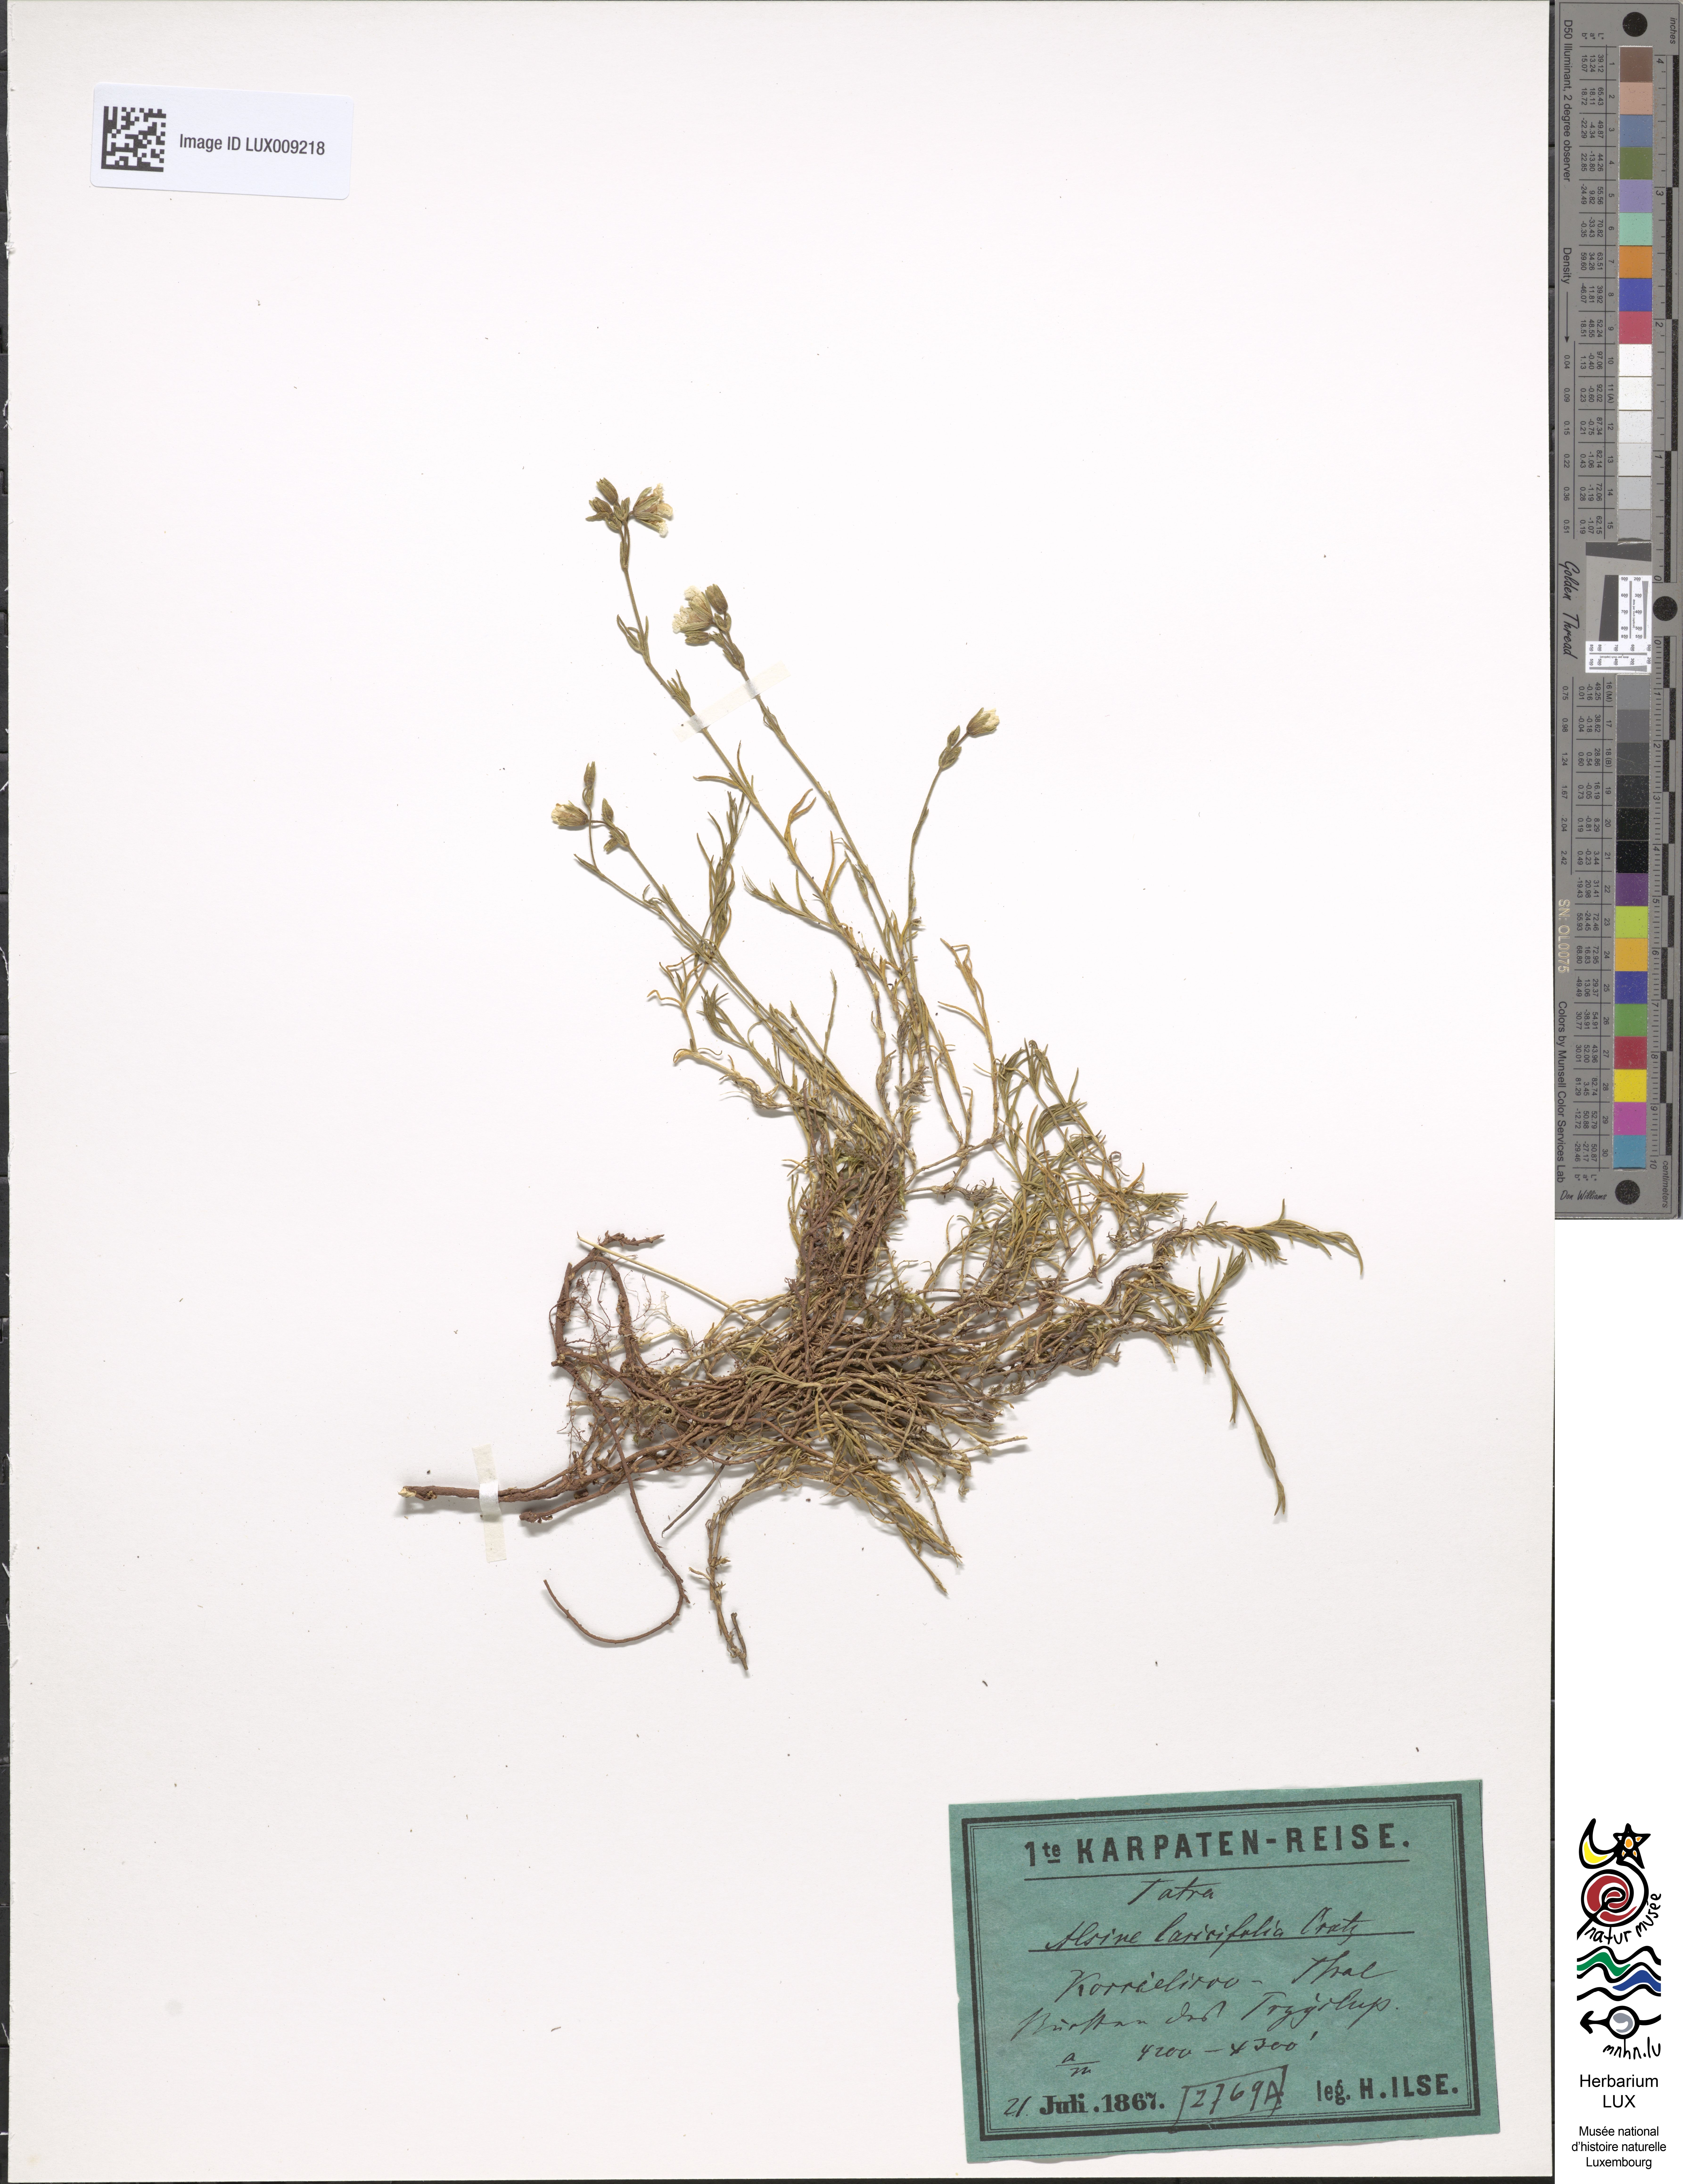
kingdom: Plantae
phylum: Tracheophyta
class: Magnoliopsida
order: Caryophyllales
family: Caryophyllaceae
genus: Cherleria
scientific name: Cherleria laricifolia
